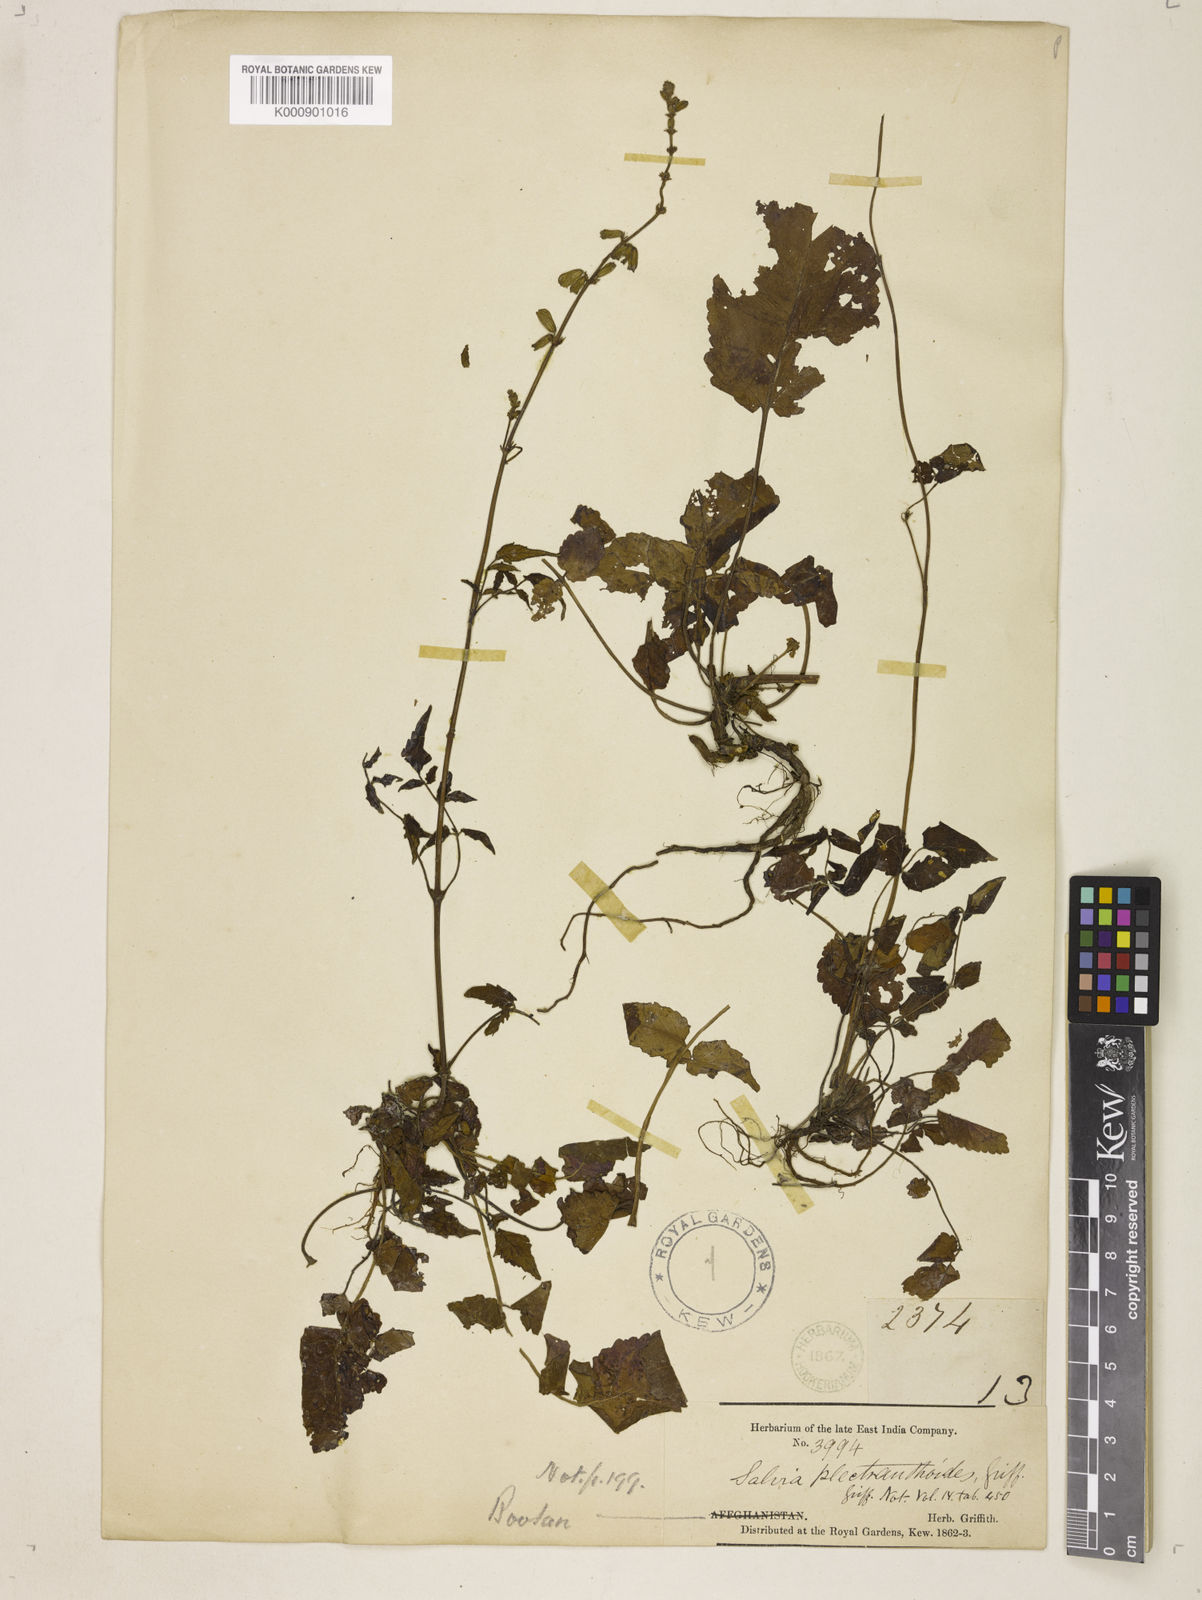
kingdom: Plantae
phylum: Tracheophyta
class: Magnoliopsida
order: Lamiales
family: Lamiaceae
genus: Salvia
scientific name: Salvia plectranthoides
